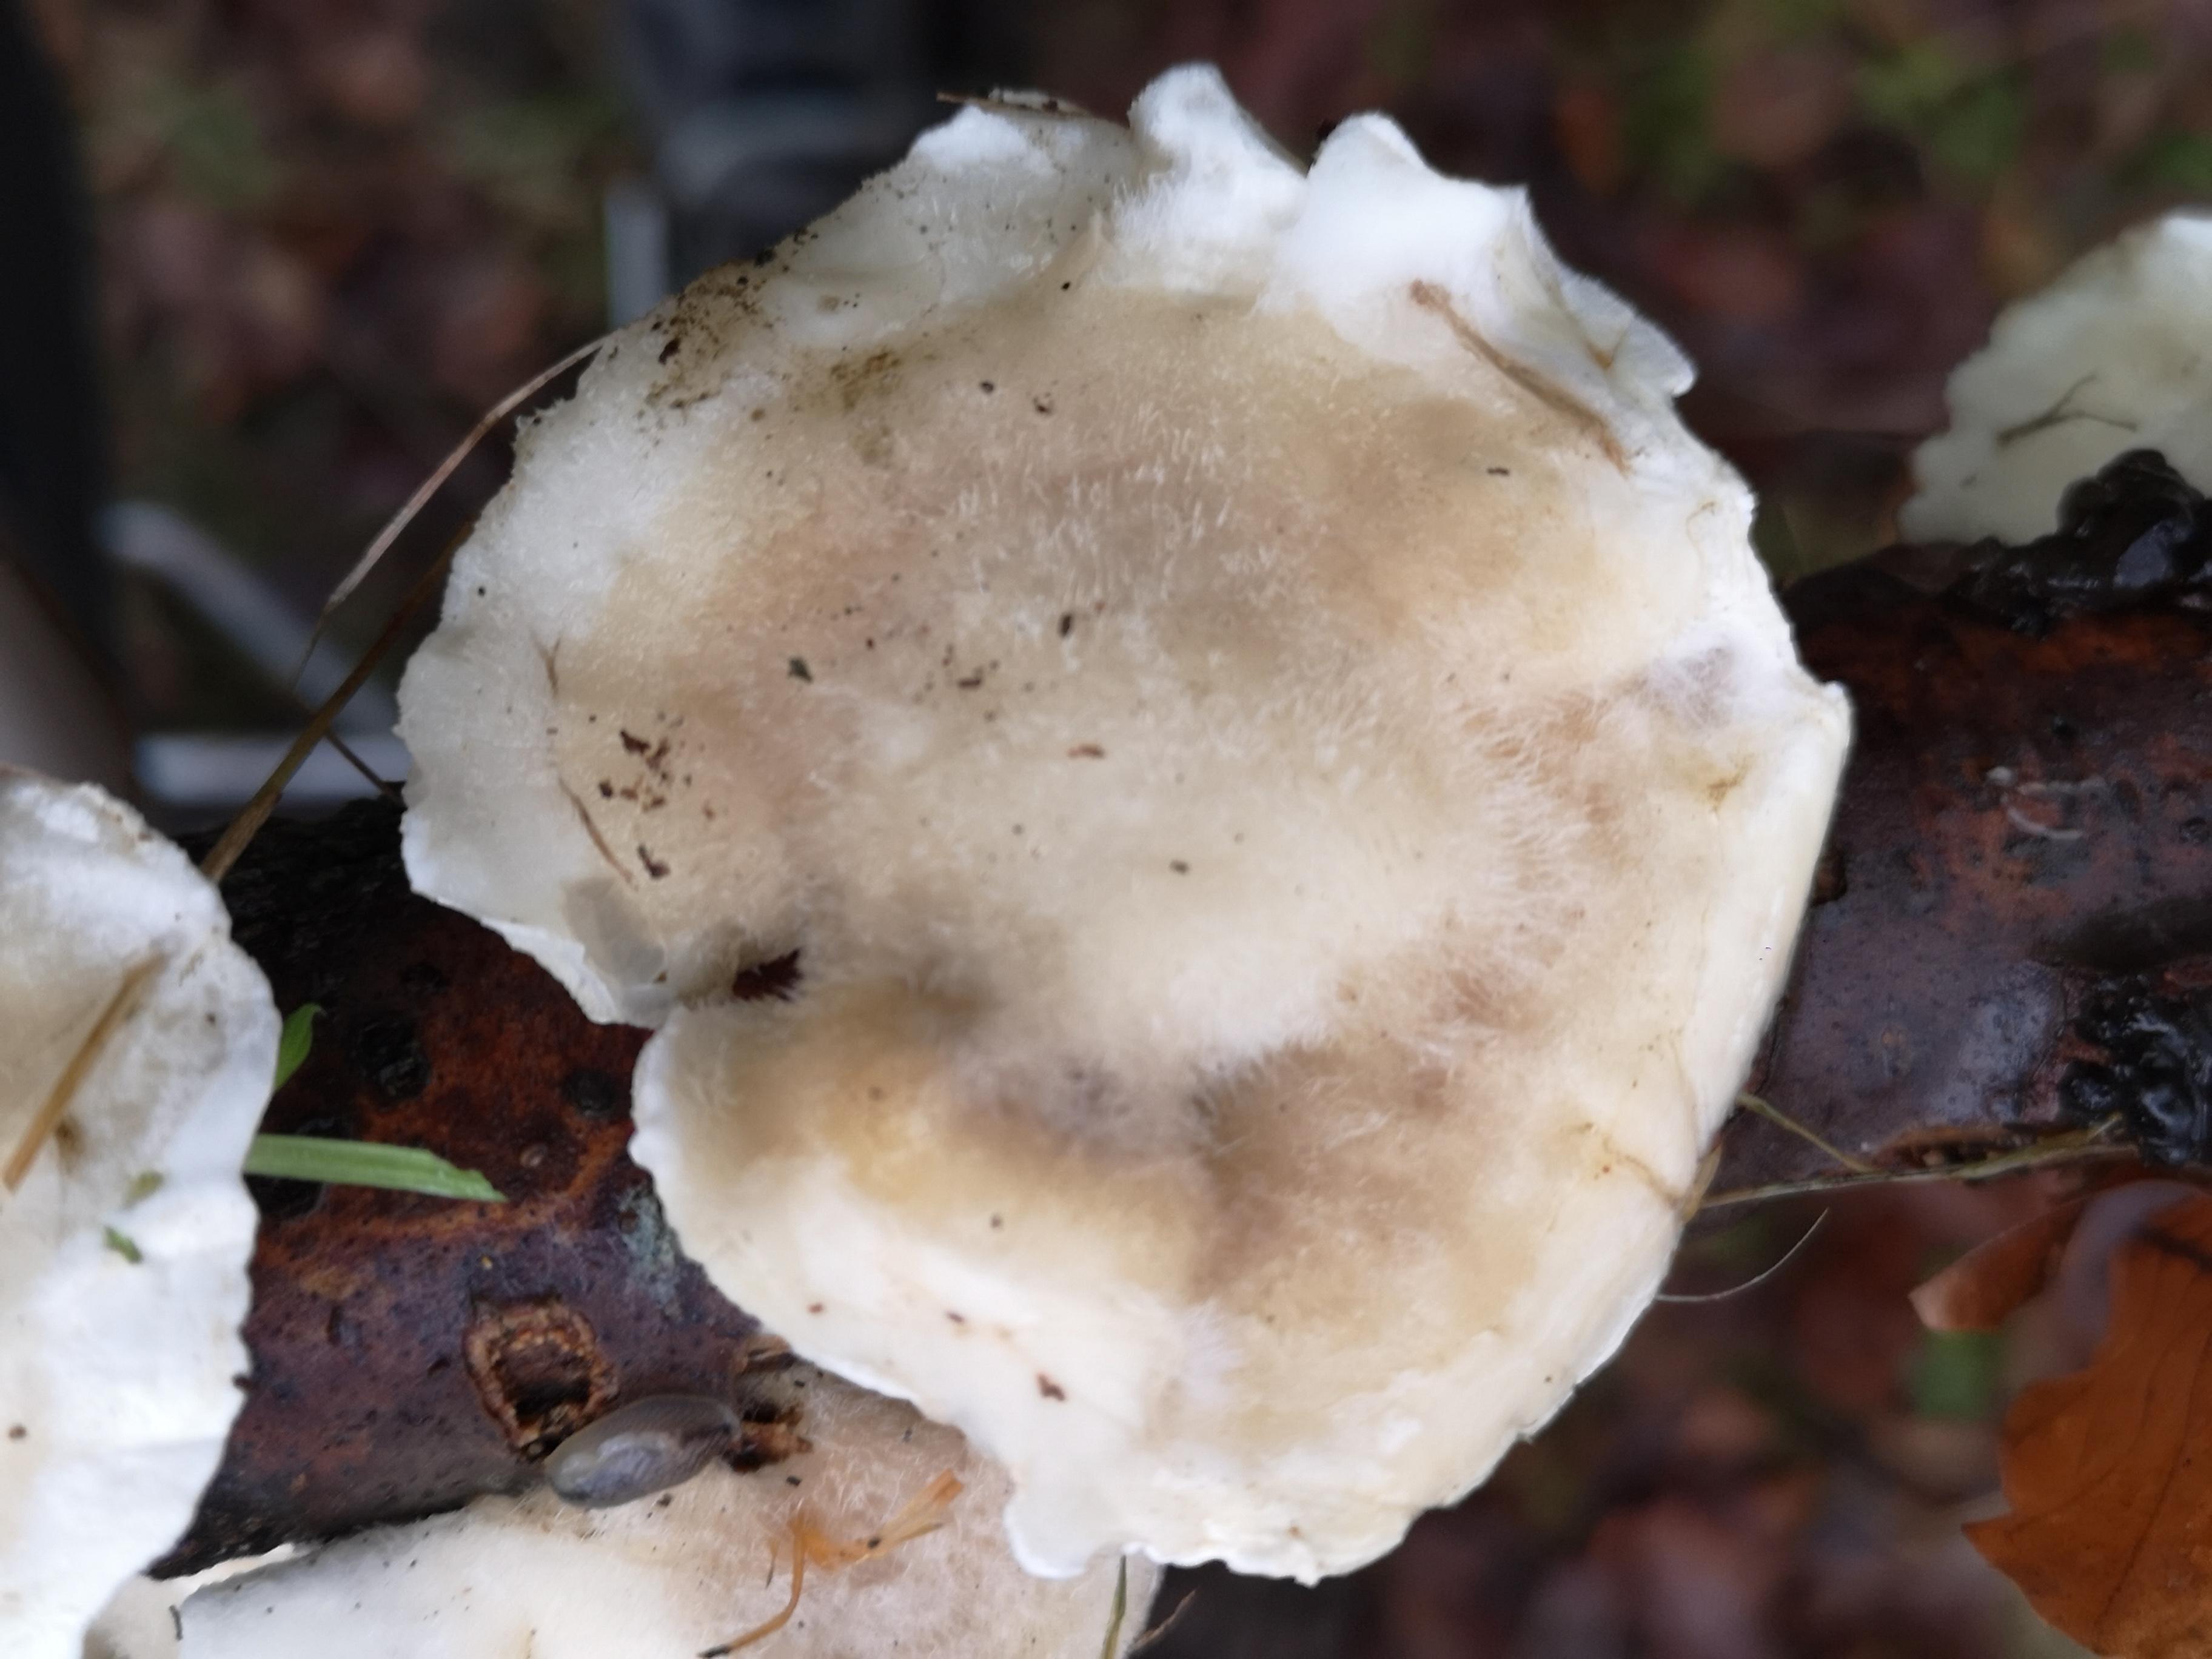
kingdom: Fungi
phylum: Basidiomycota
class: Agaricomycetes
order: Polyporales
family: Polyporaceae
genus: Trametes
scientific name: Trametes hirsuta
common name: håret læderporesvamp
